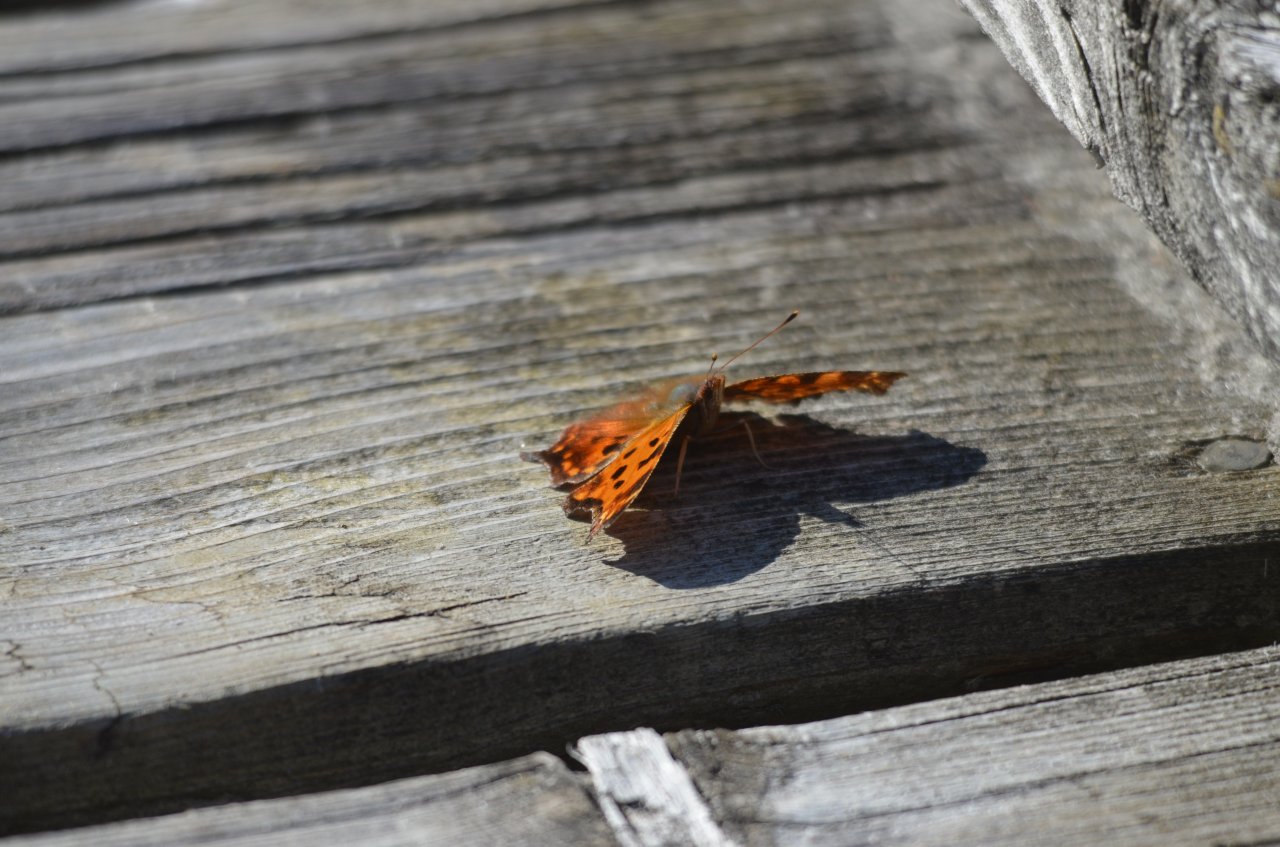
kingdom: Animalia
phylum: Arthropoda
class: Insecta
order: Lepidoptera
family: Nymphalidae
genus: Polygonia
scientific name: Polygonia comma
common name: Eastern Comma
